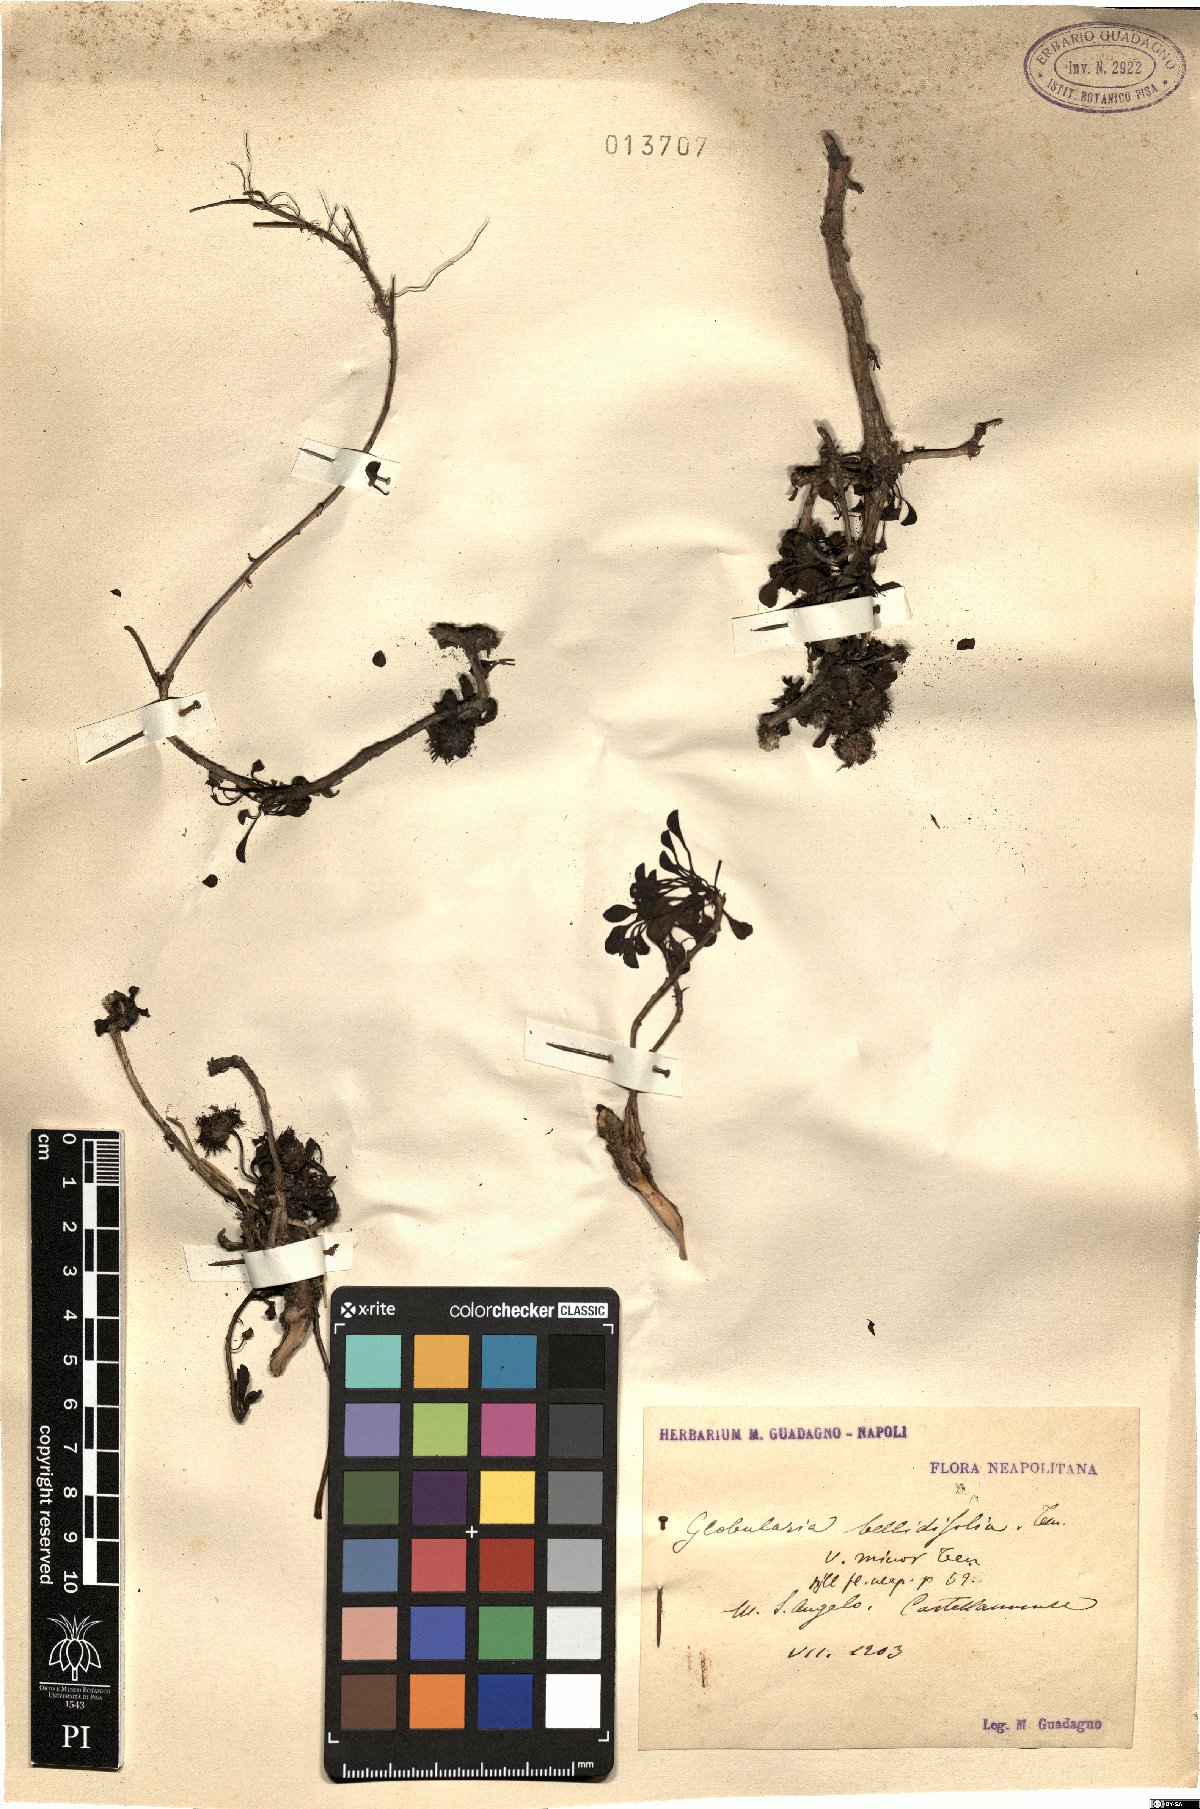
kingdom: Plantae
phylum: Tracheophyta
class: Magnoliopsida
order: Lamiales
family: Plantaginaceae
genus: Globularia
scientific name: Globularia cordifolia
